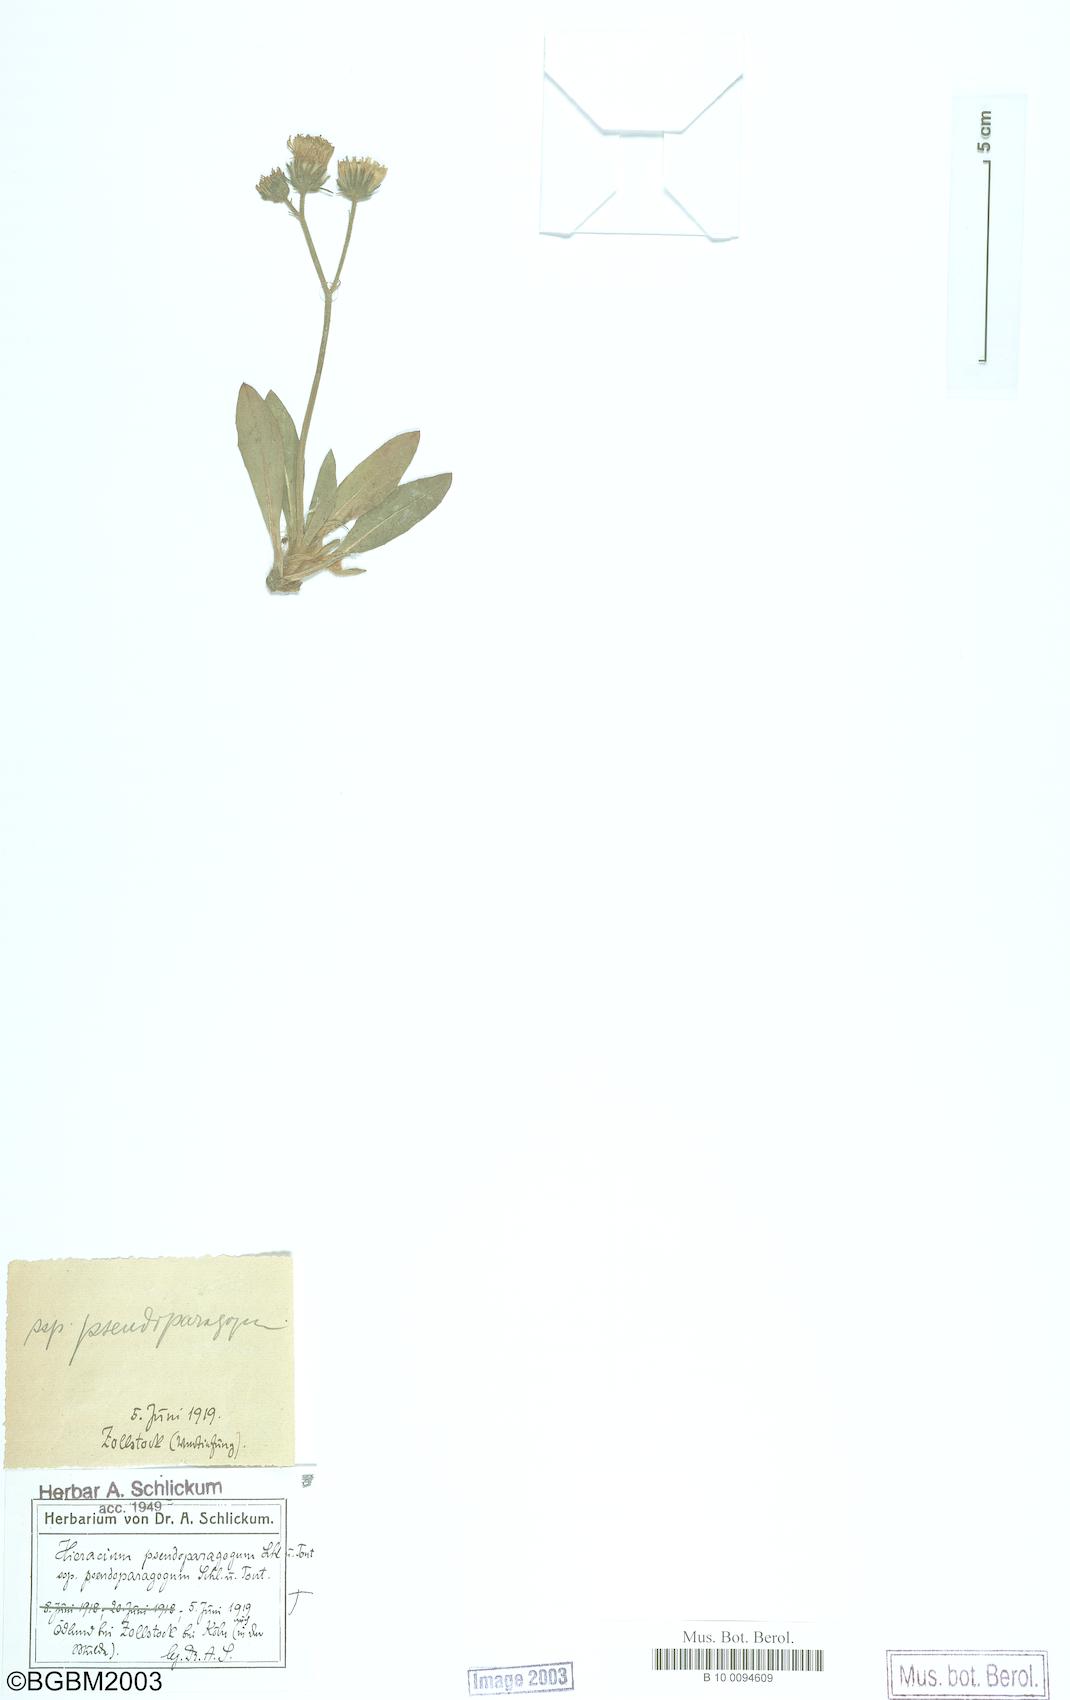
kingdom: Plantae
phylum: Tracheophyta
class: Magnoliopsida
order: Asterales
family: Asteraceae
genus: Pilosella
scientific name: Pilosella pseudoparagoga
